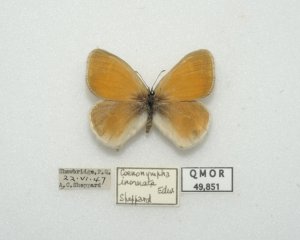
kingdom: Animalia
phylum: Arthropoda
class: Insecta
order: Lepidoptera
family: Nymphalidae
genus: Coenonympha
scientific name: Coenonympha tullia
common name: Large Heath
